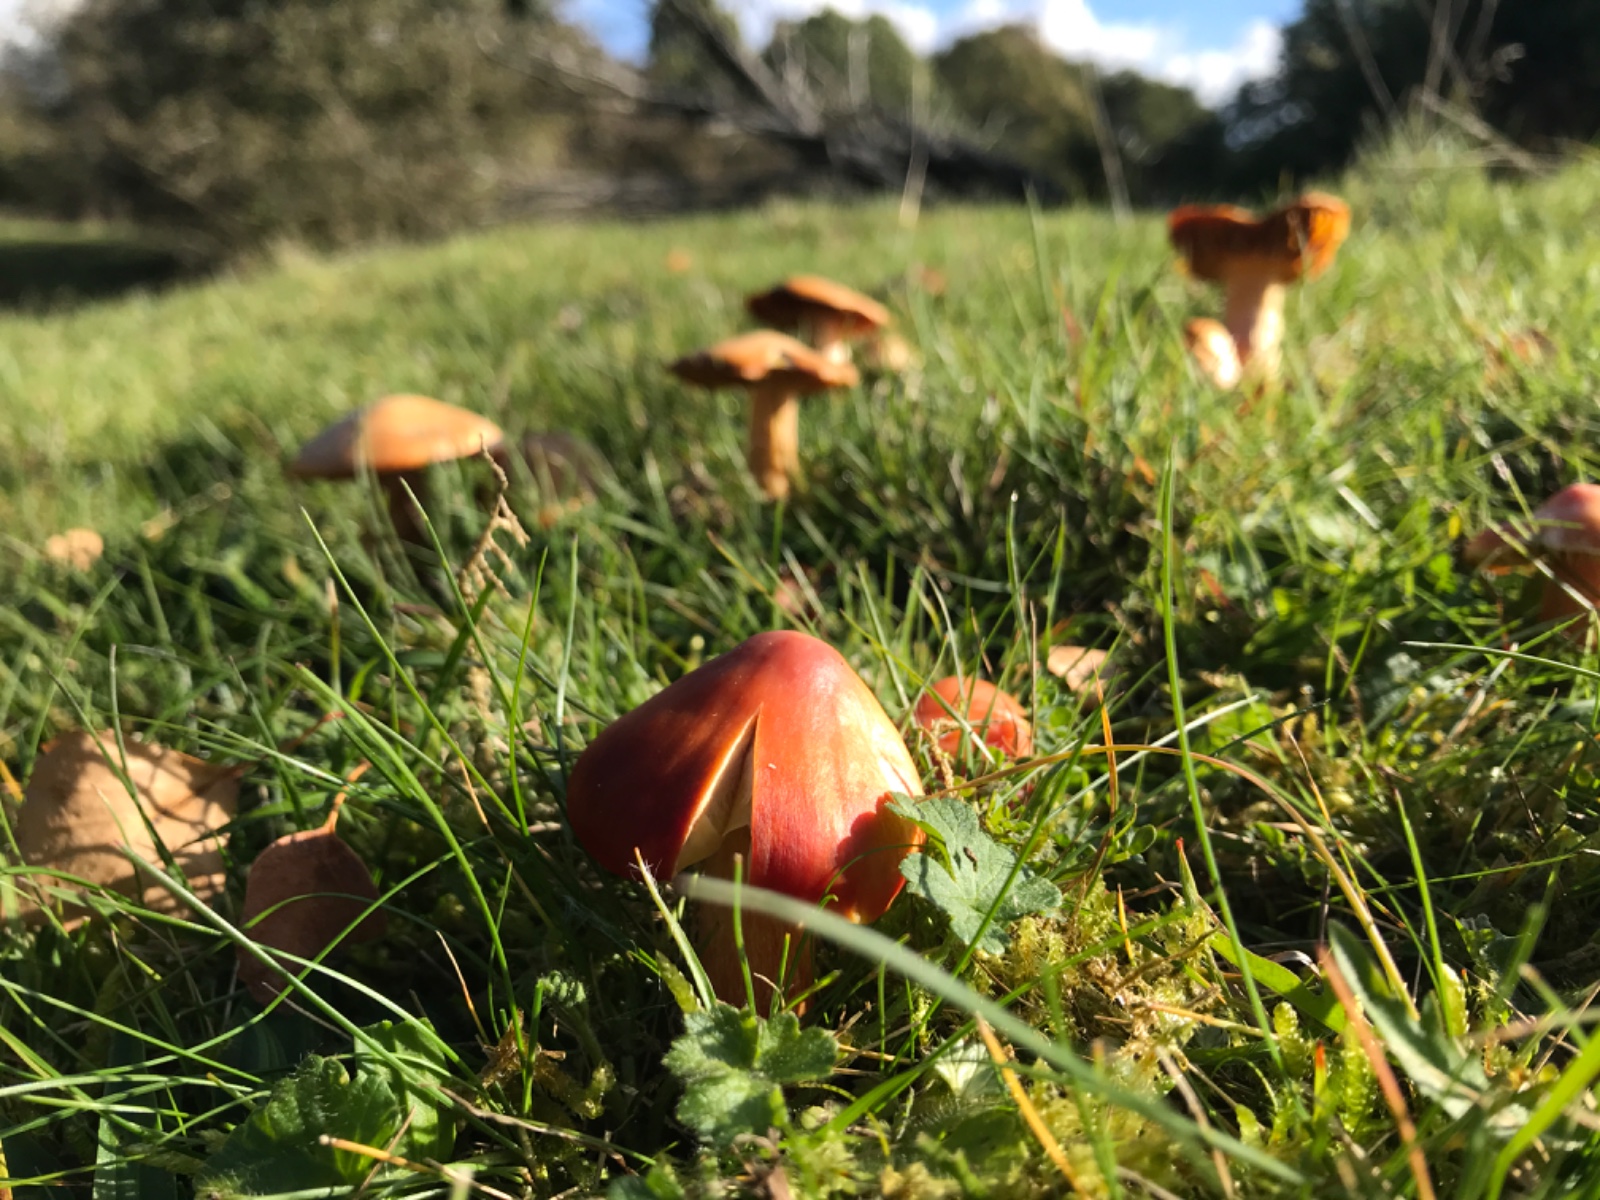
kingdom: Fungi
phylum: Basidiomycota
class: Agaricomycetes
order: Agaricales
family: Hygrophoraceae
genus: Hygrocybe
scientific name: Hygrocybe punicea
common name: skarlagen-vokshat
